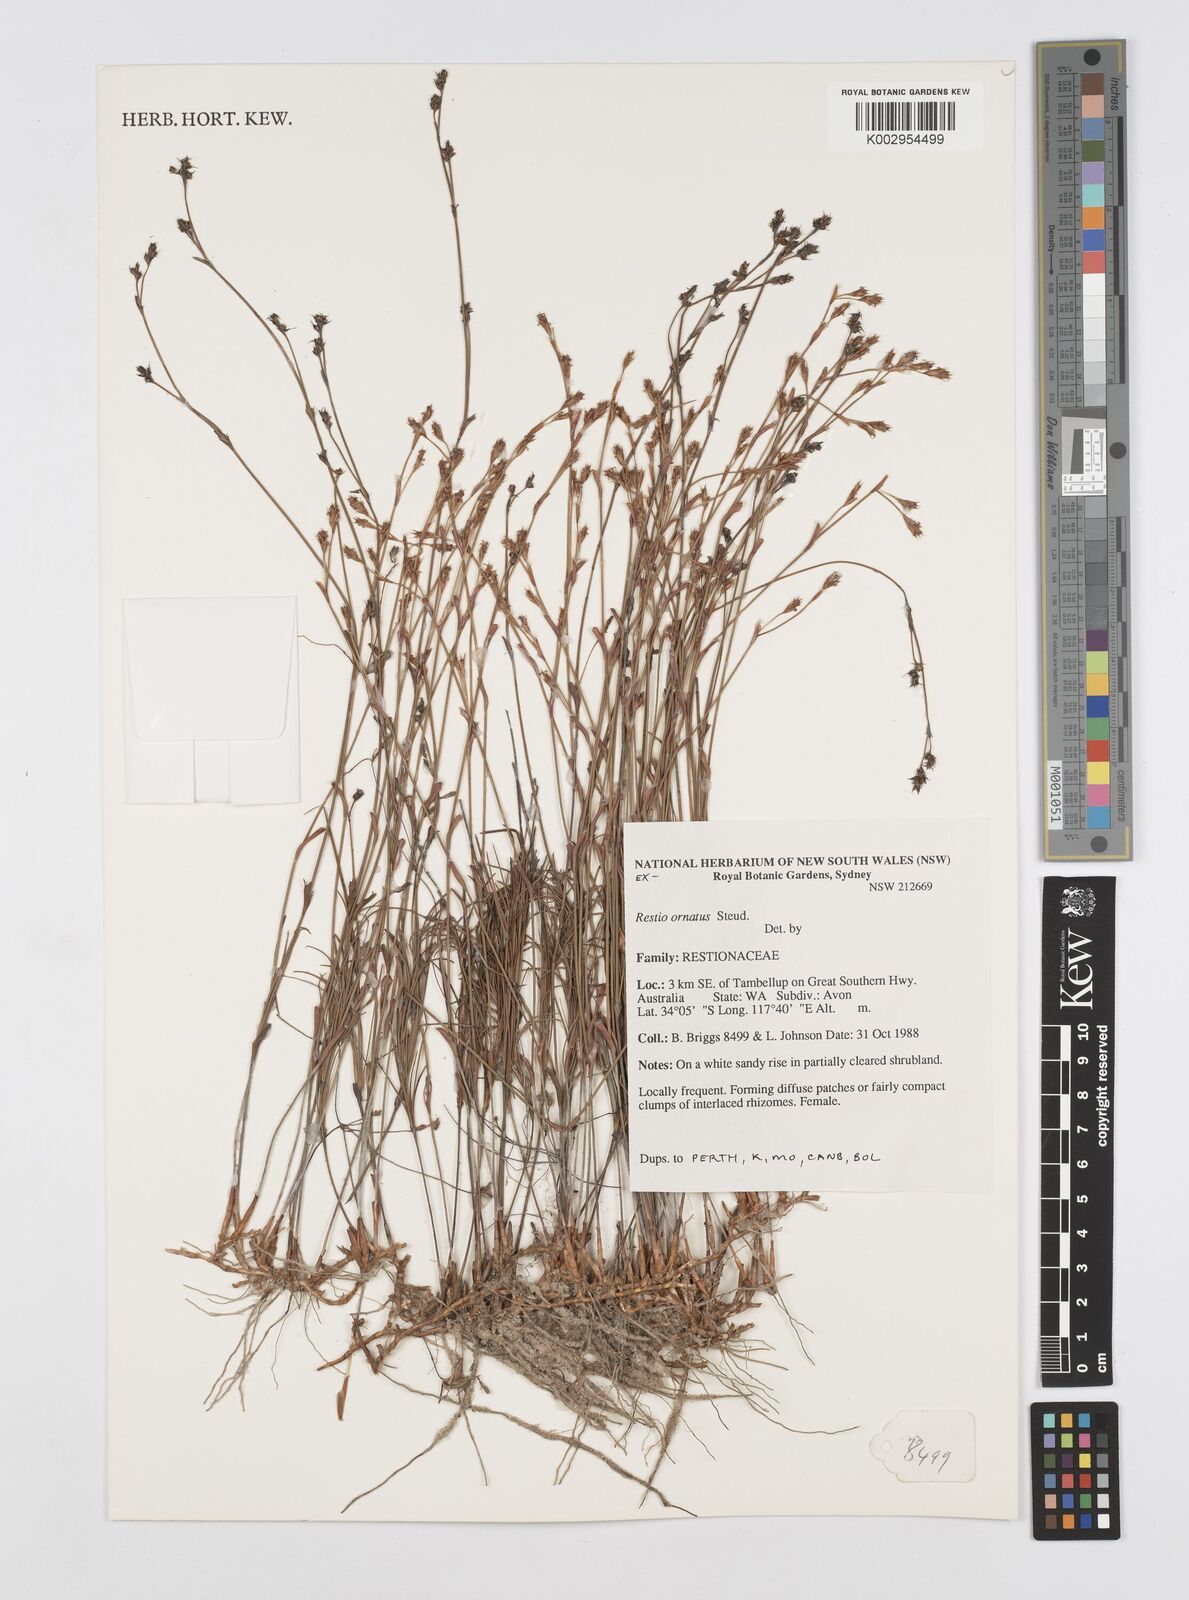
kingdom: Plantae
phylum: Tracheophyta
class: Liliopsida
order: Poales
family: Restionaceae
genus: Chordifex
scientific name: Chordifex ornatus
